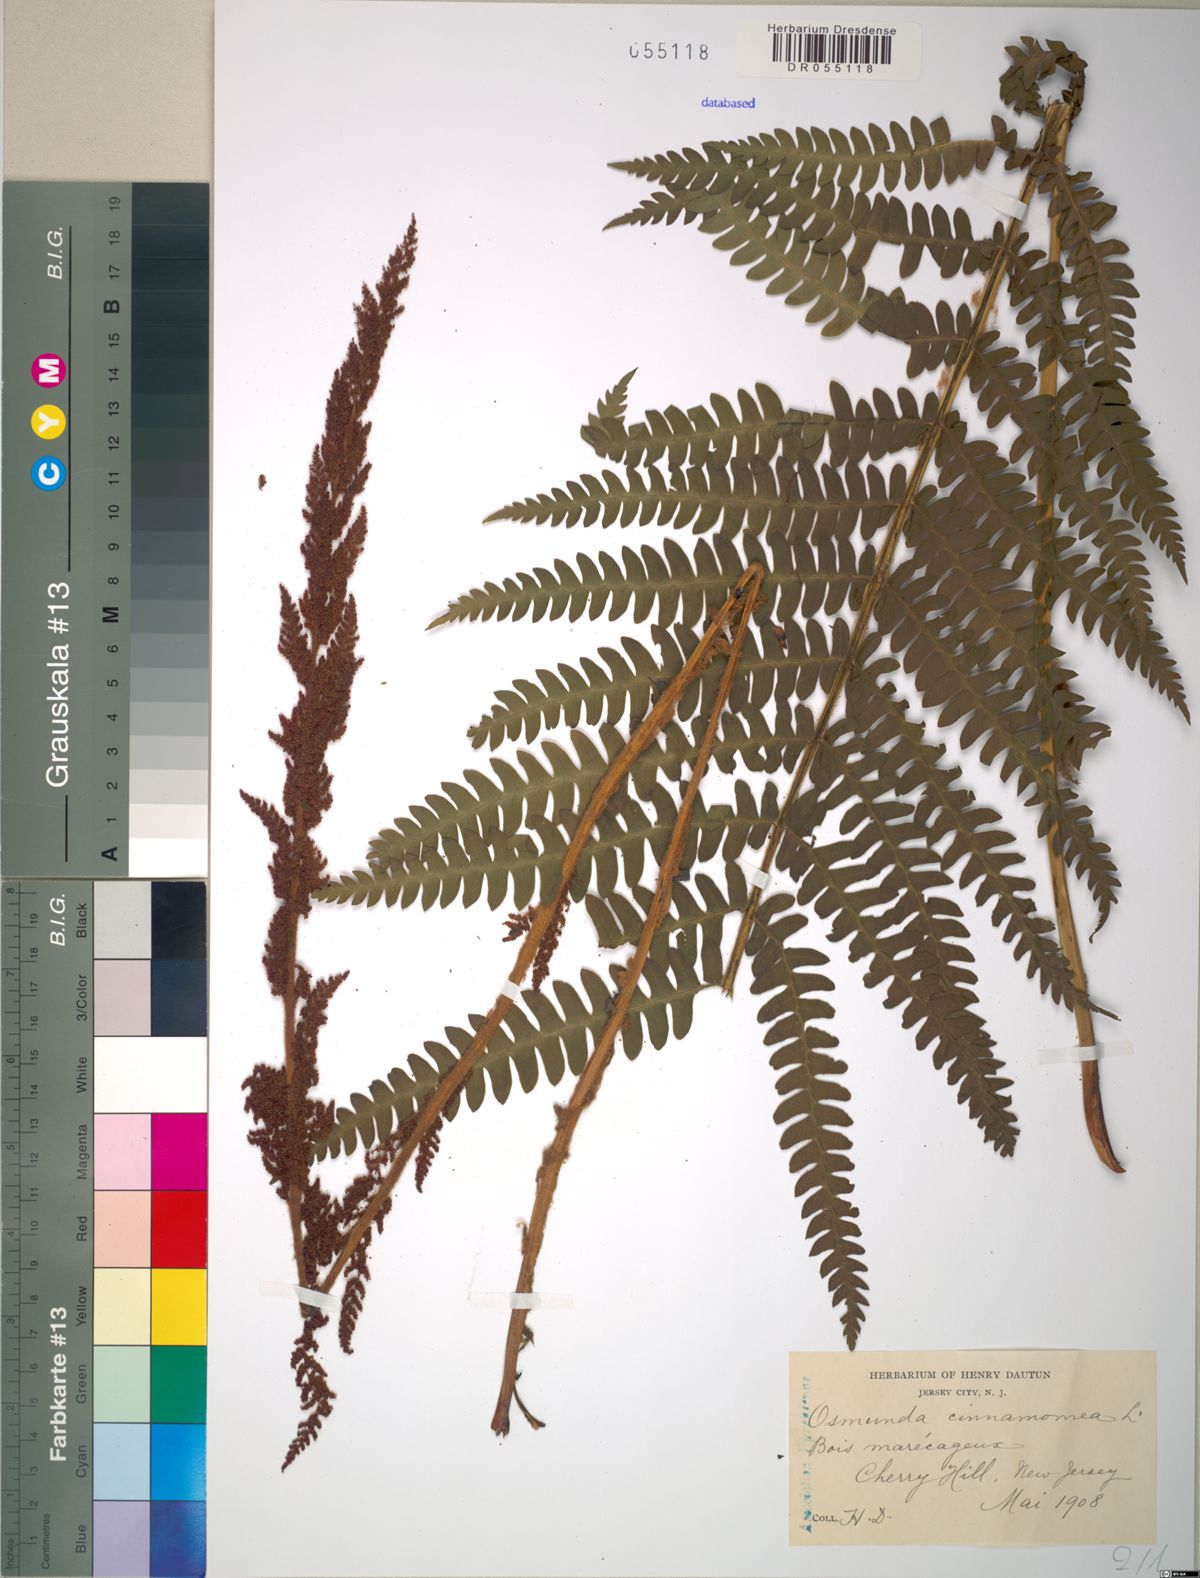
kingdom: Plantae
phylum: Tracheophyta
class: Polypodiopsida
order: Osmundales
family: Osmundaceae
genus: Osmundastrum
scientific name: Osmundastrum cinnamomeum
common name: Cinnamon fern
